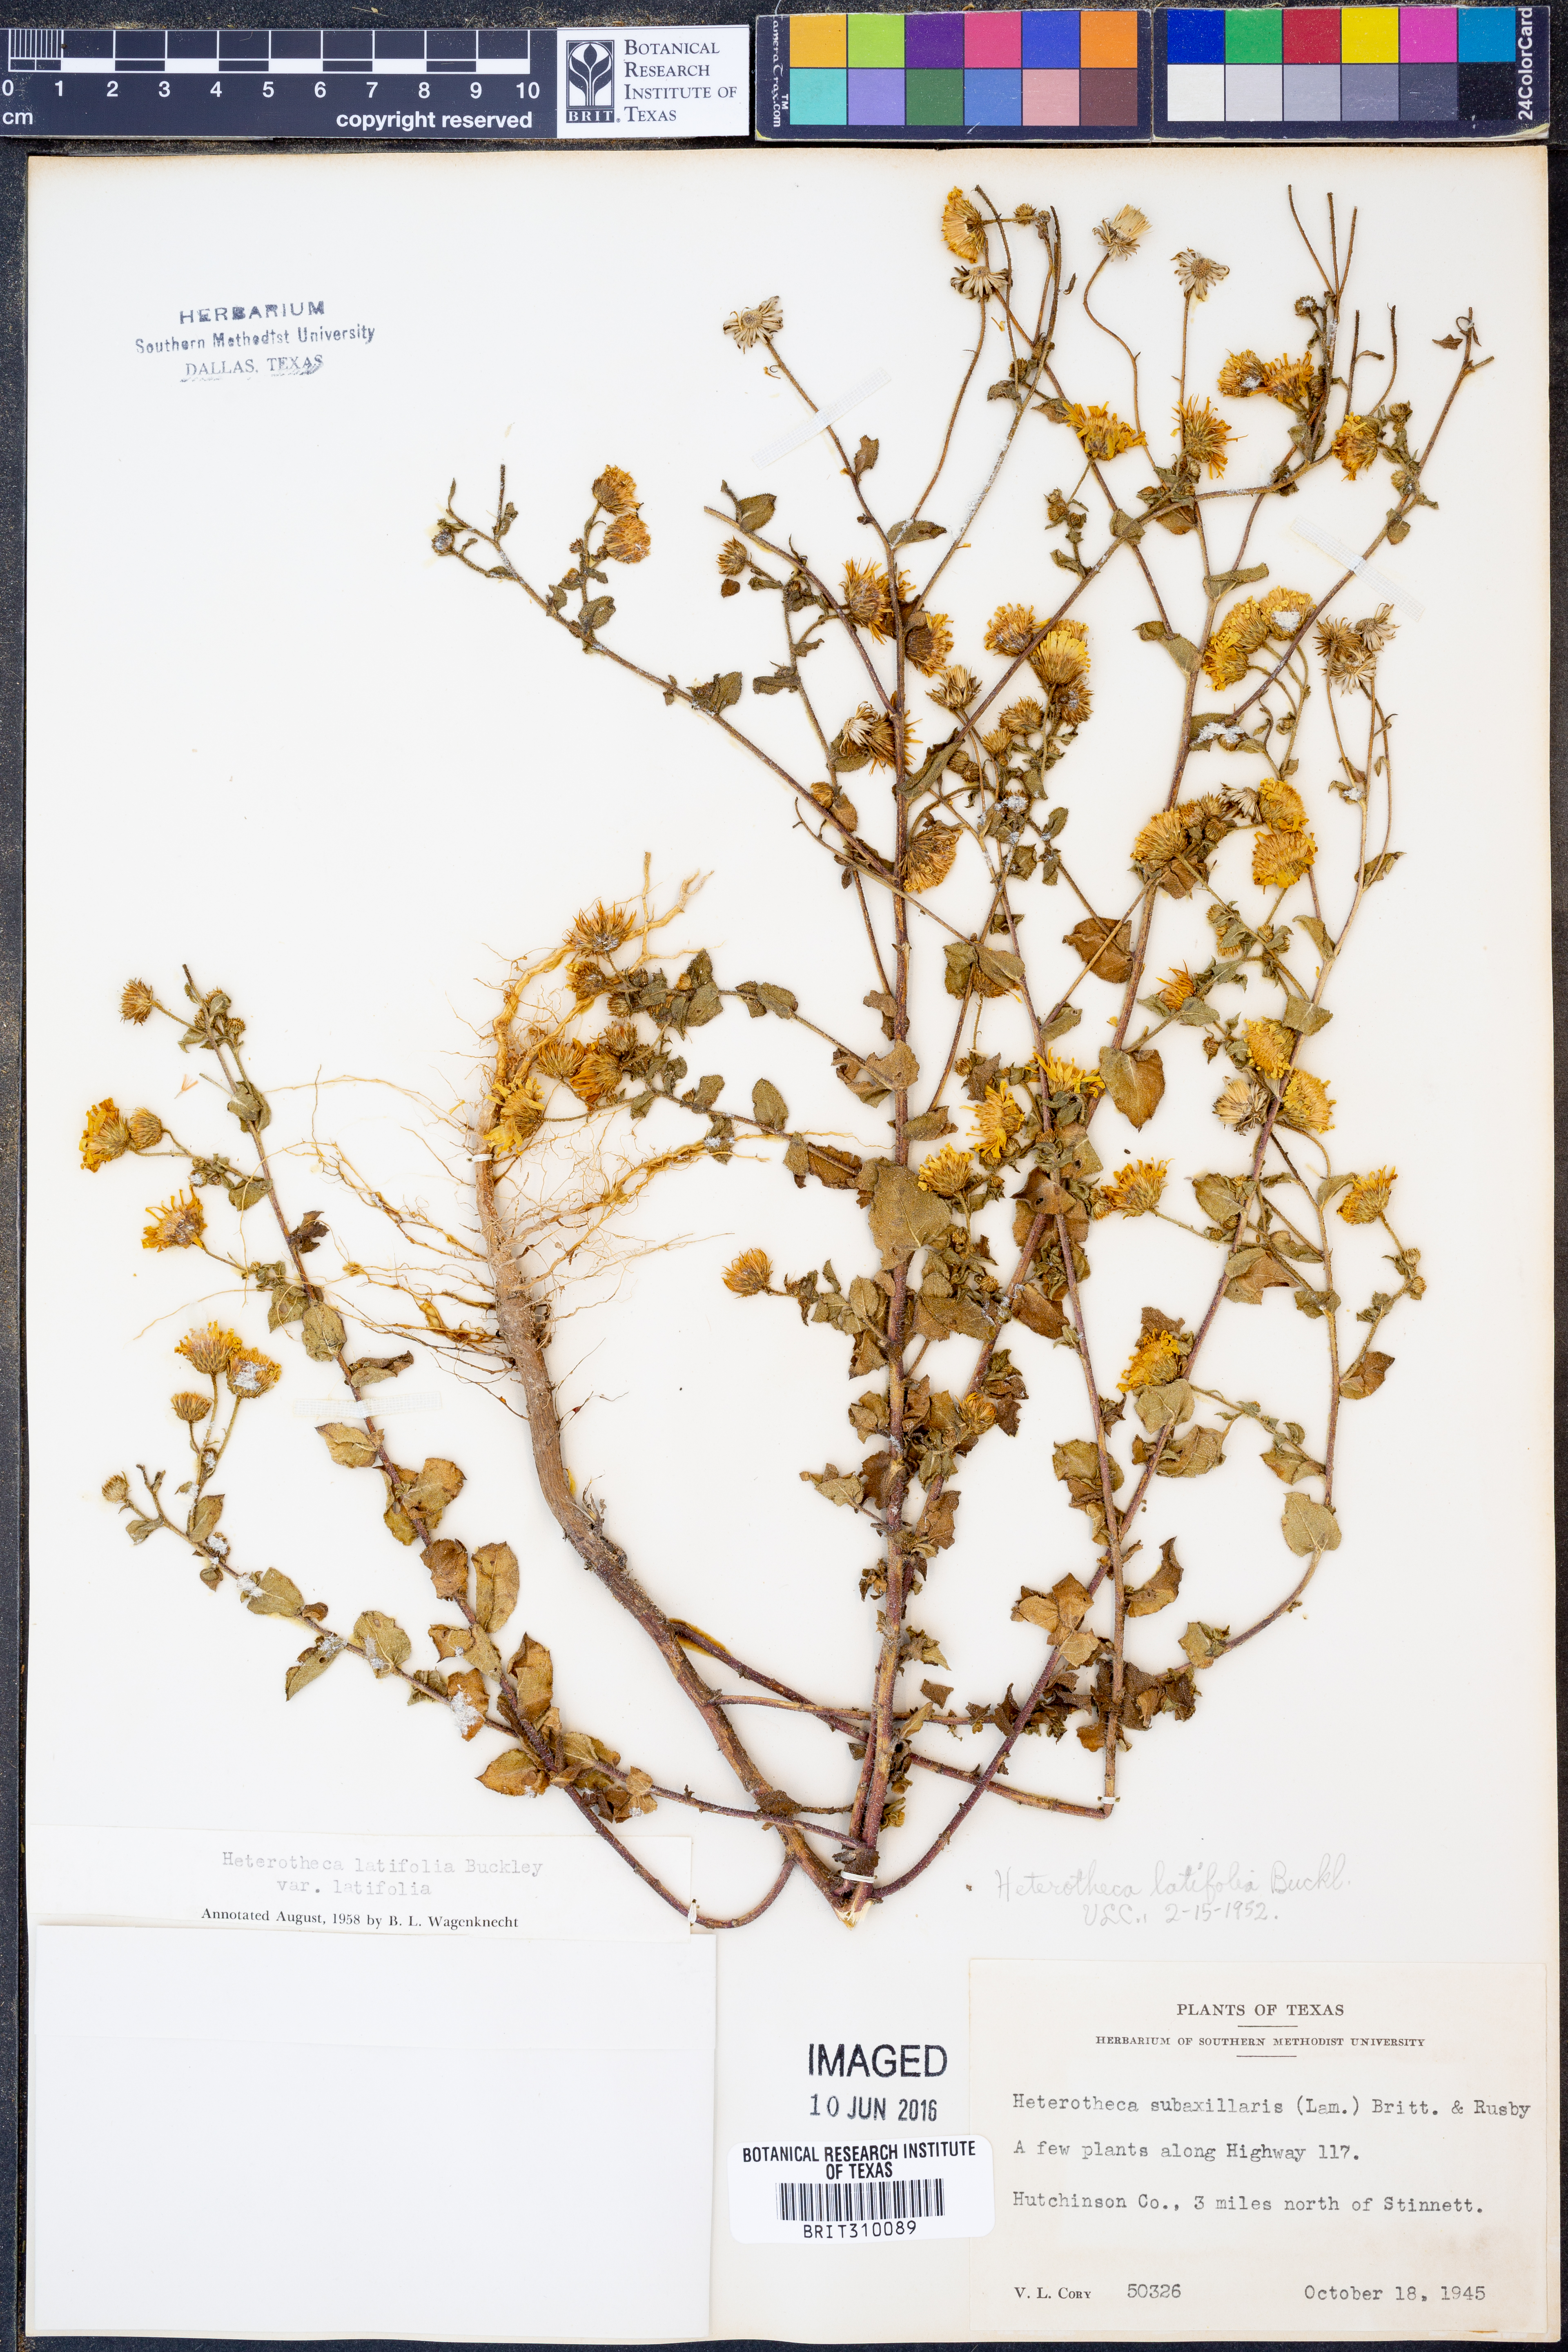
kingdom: Plantae
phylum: Tracheophyta
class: Magnoliopsida
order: Asterales
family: Asteraceae
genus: Heterotheca
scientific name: Heterotheca subaxillaris
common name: Camphorweed
